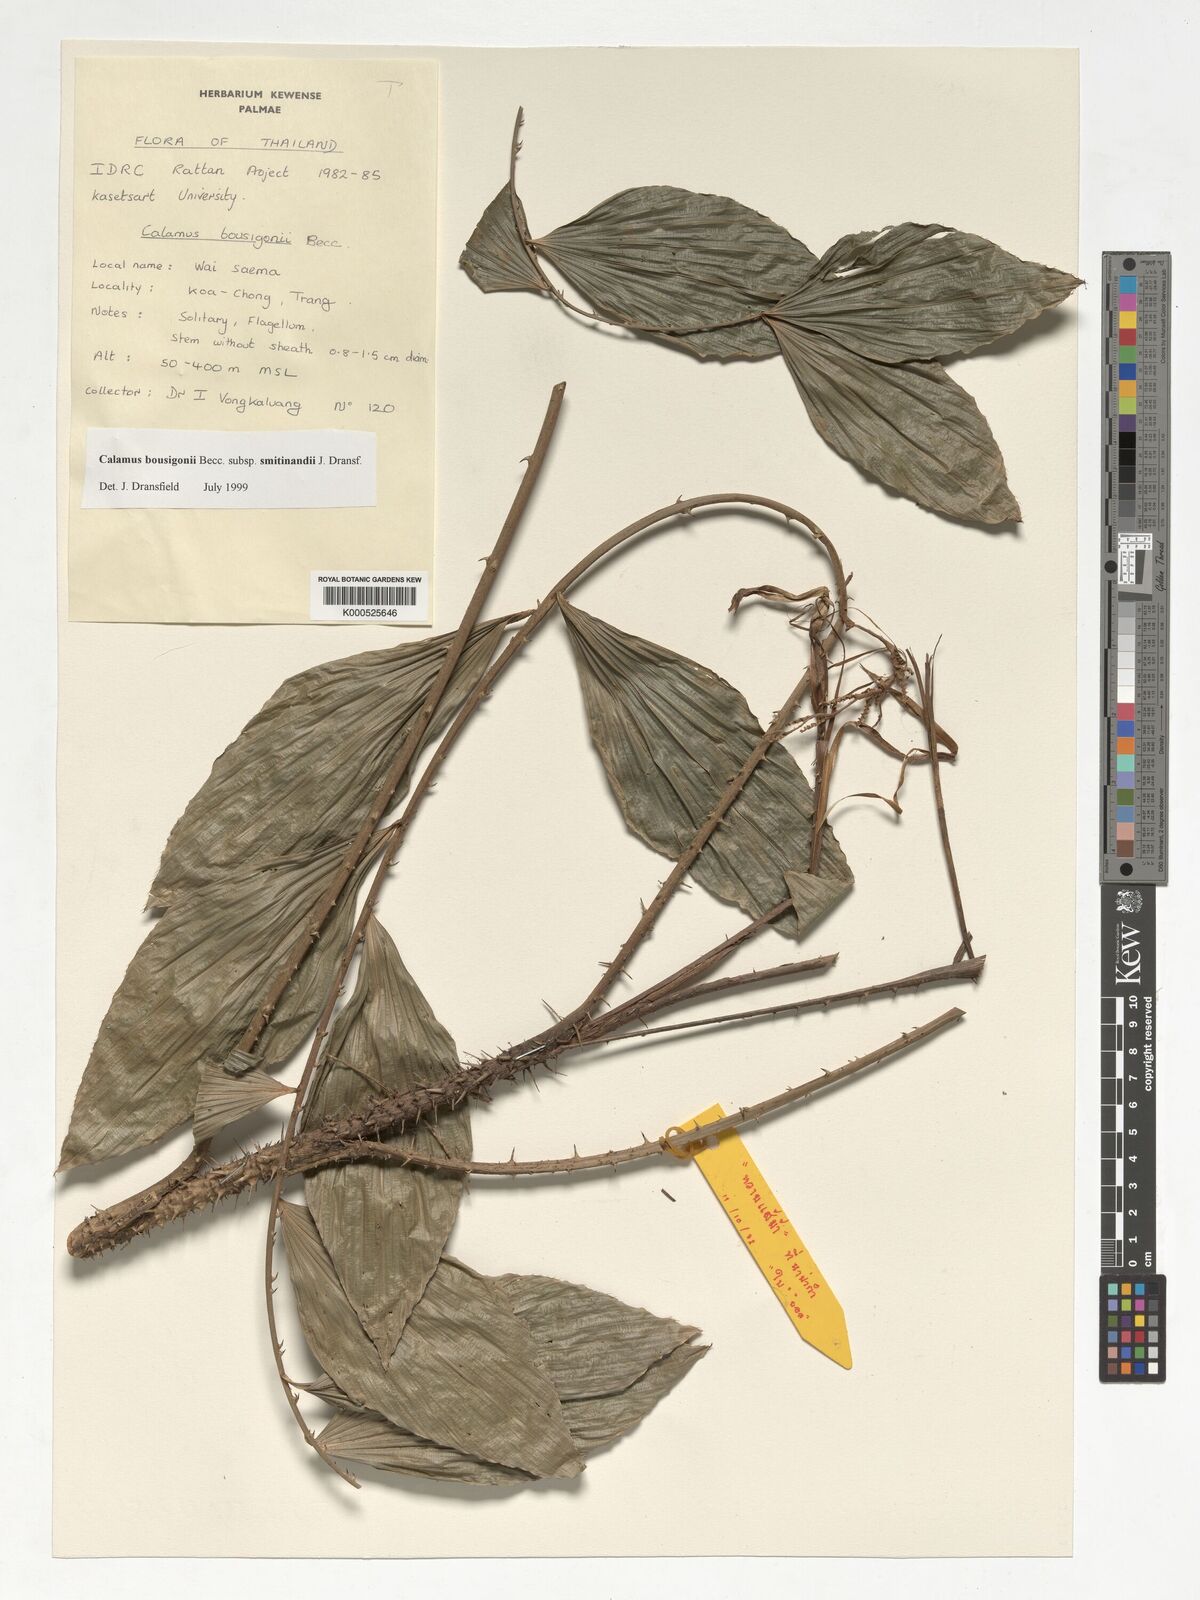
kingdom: Plantae
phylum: Tracheophyta
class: Liliopsida
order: Arecales
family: Arecaceae
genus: Calamus
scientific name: Calamus smitinandii
